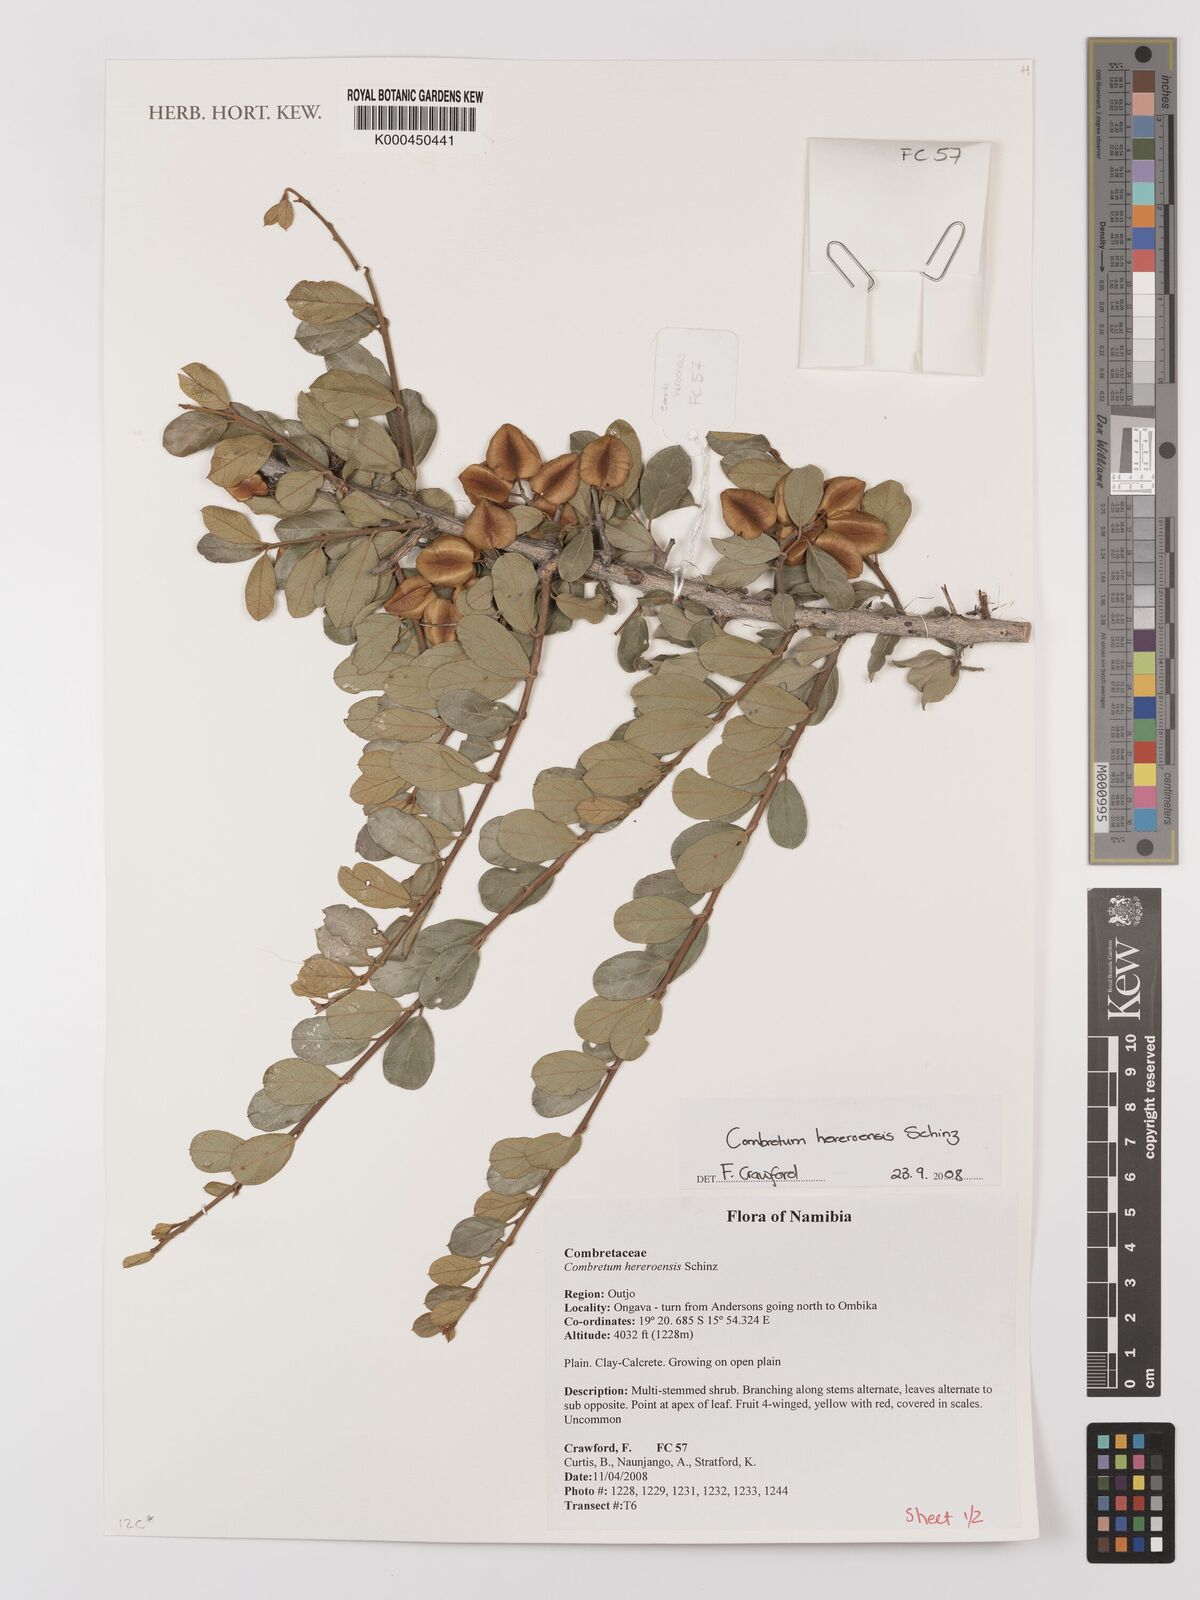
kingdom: Plantae
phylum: Tracheophyta
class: Magnoliopsida
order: Myrtales
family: Combretaceae
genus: Combretum
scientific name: Combretum hereroense
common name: Russet bushwillow
